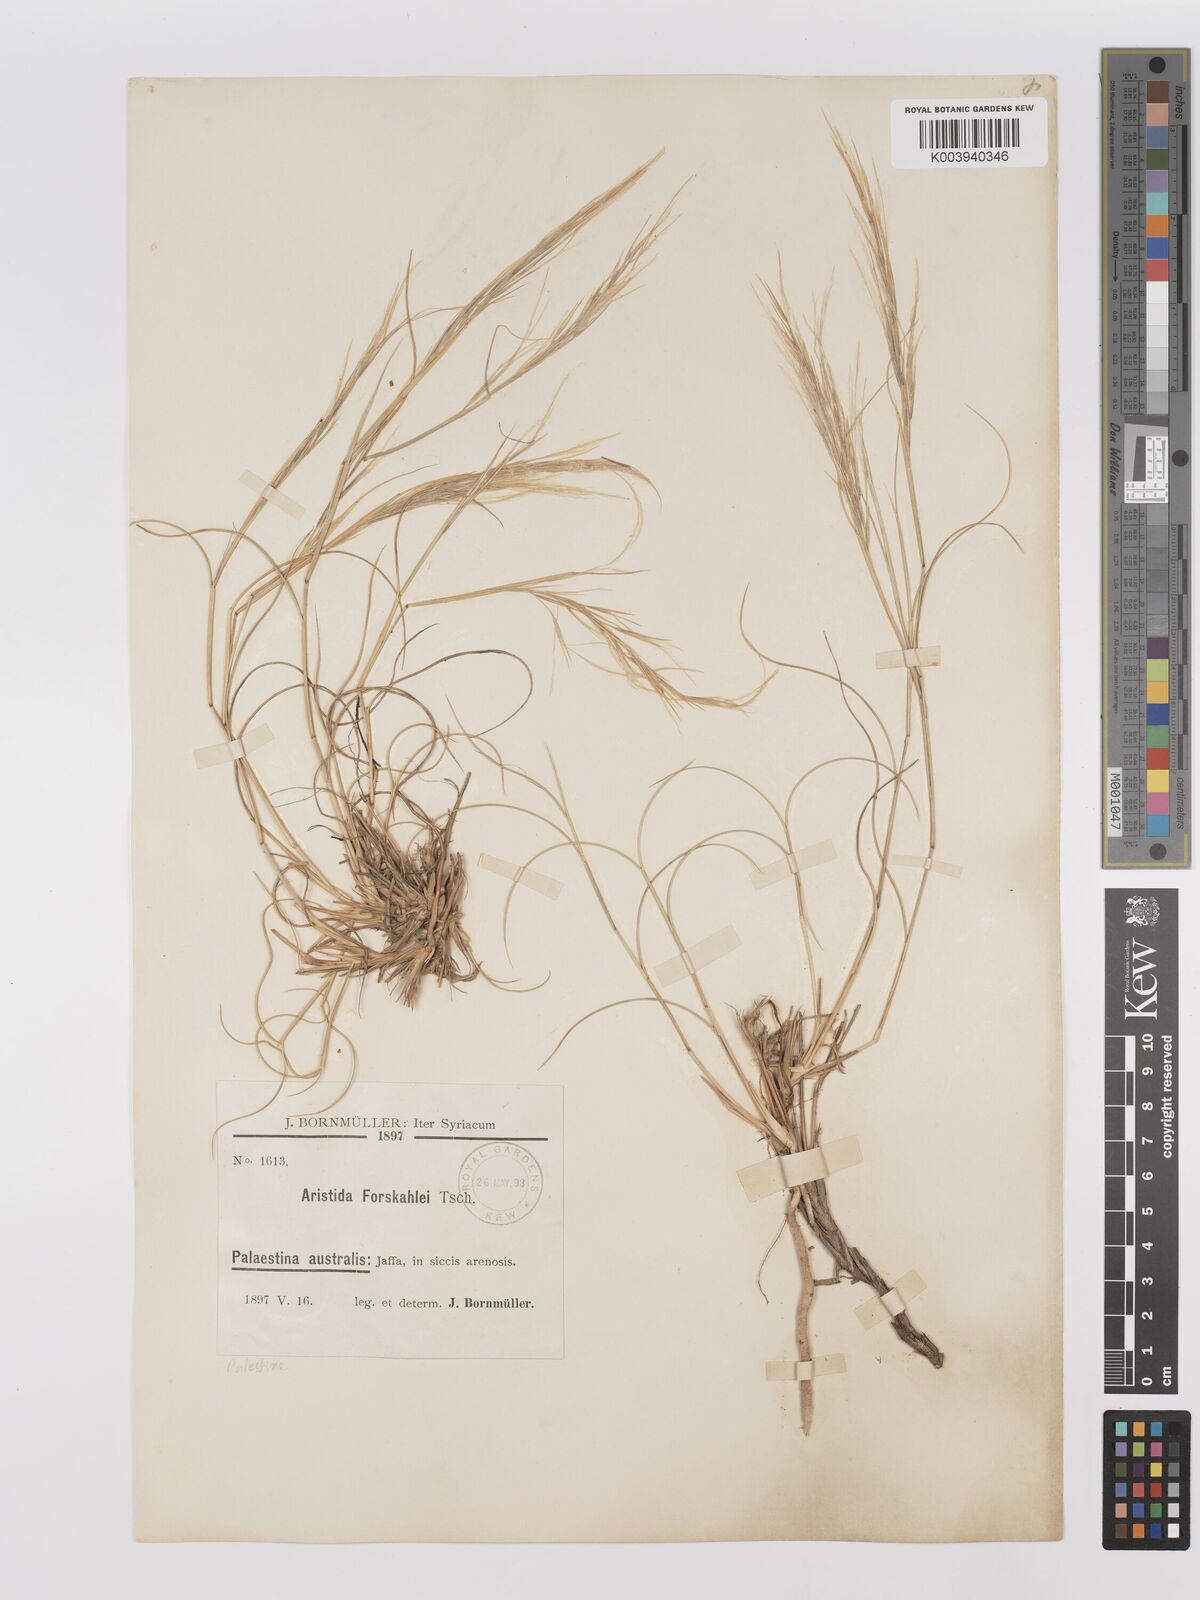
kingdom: Plantae
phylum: Tracheophyta
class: Liliopsida
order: Poales
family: Poaceae
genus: Stipagrostis
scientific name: Stipagrostis lanata
